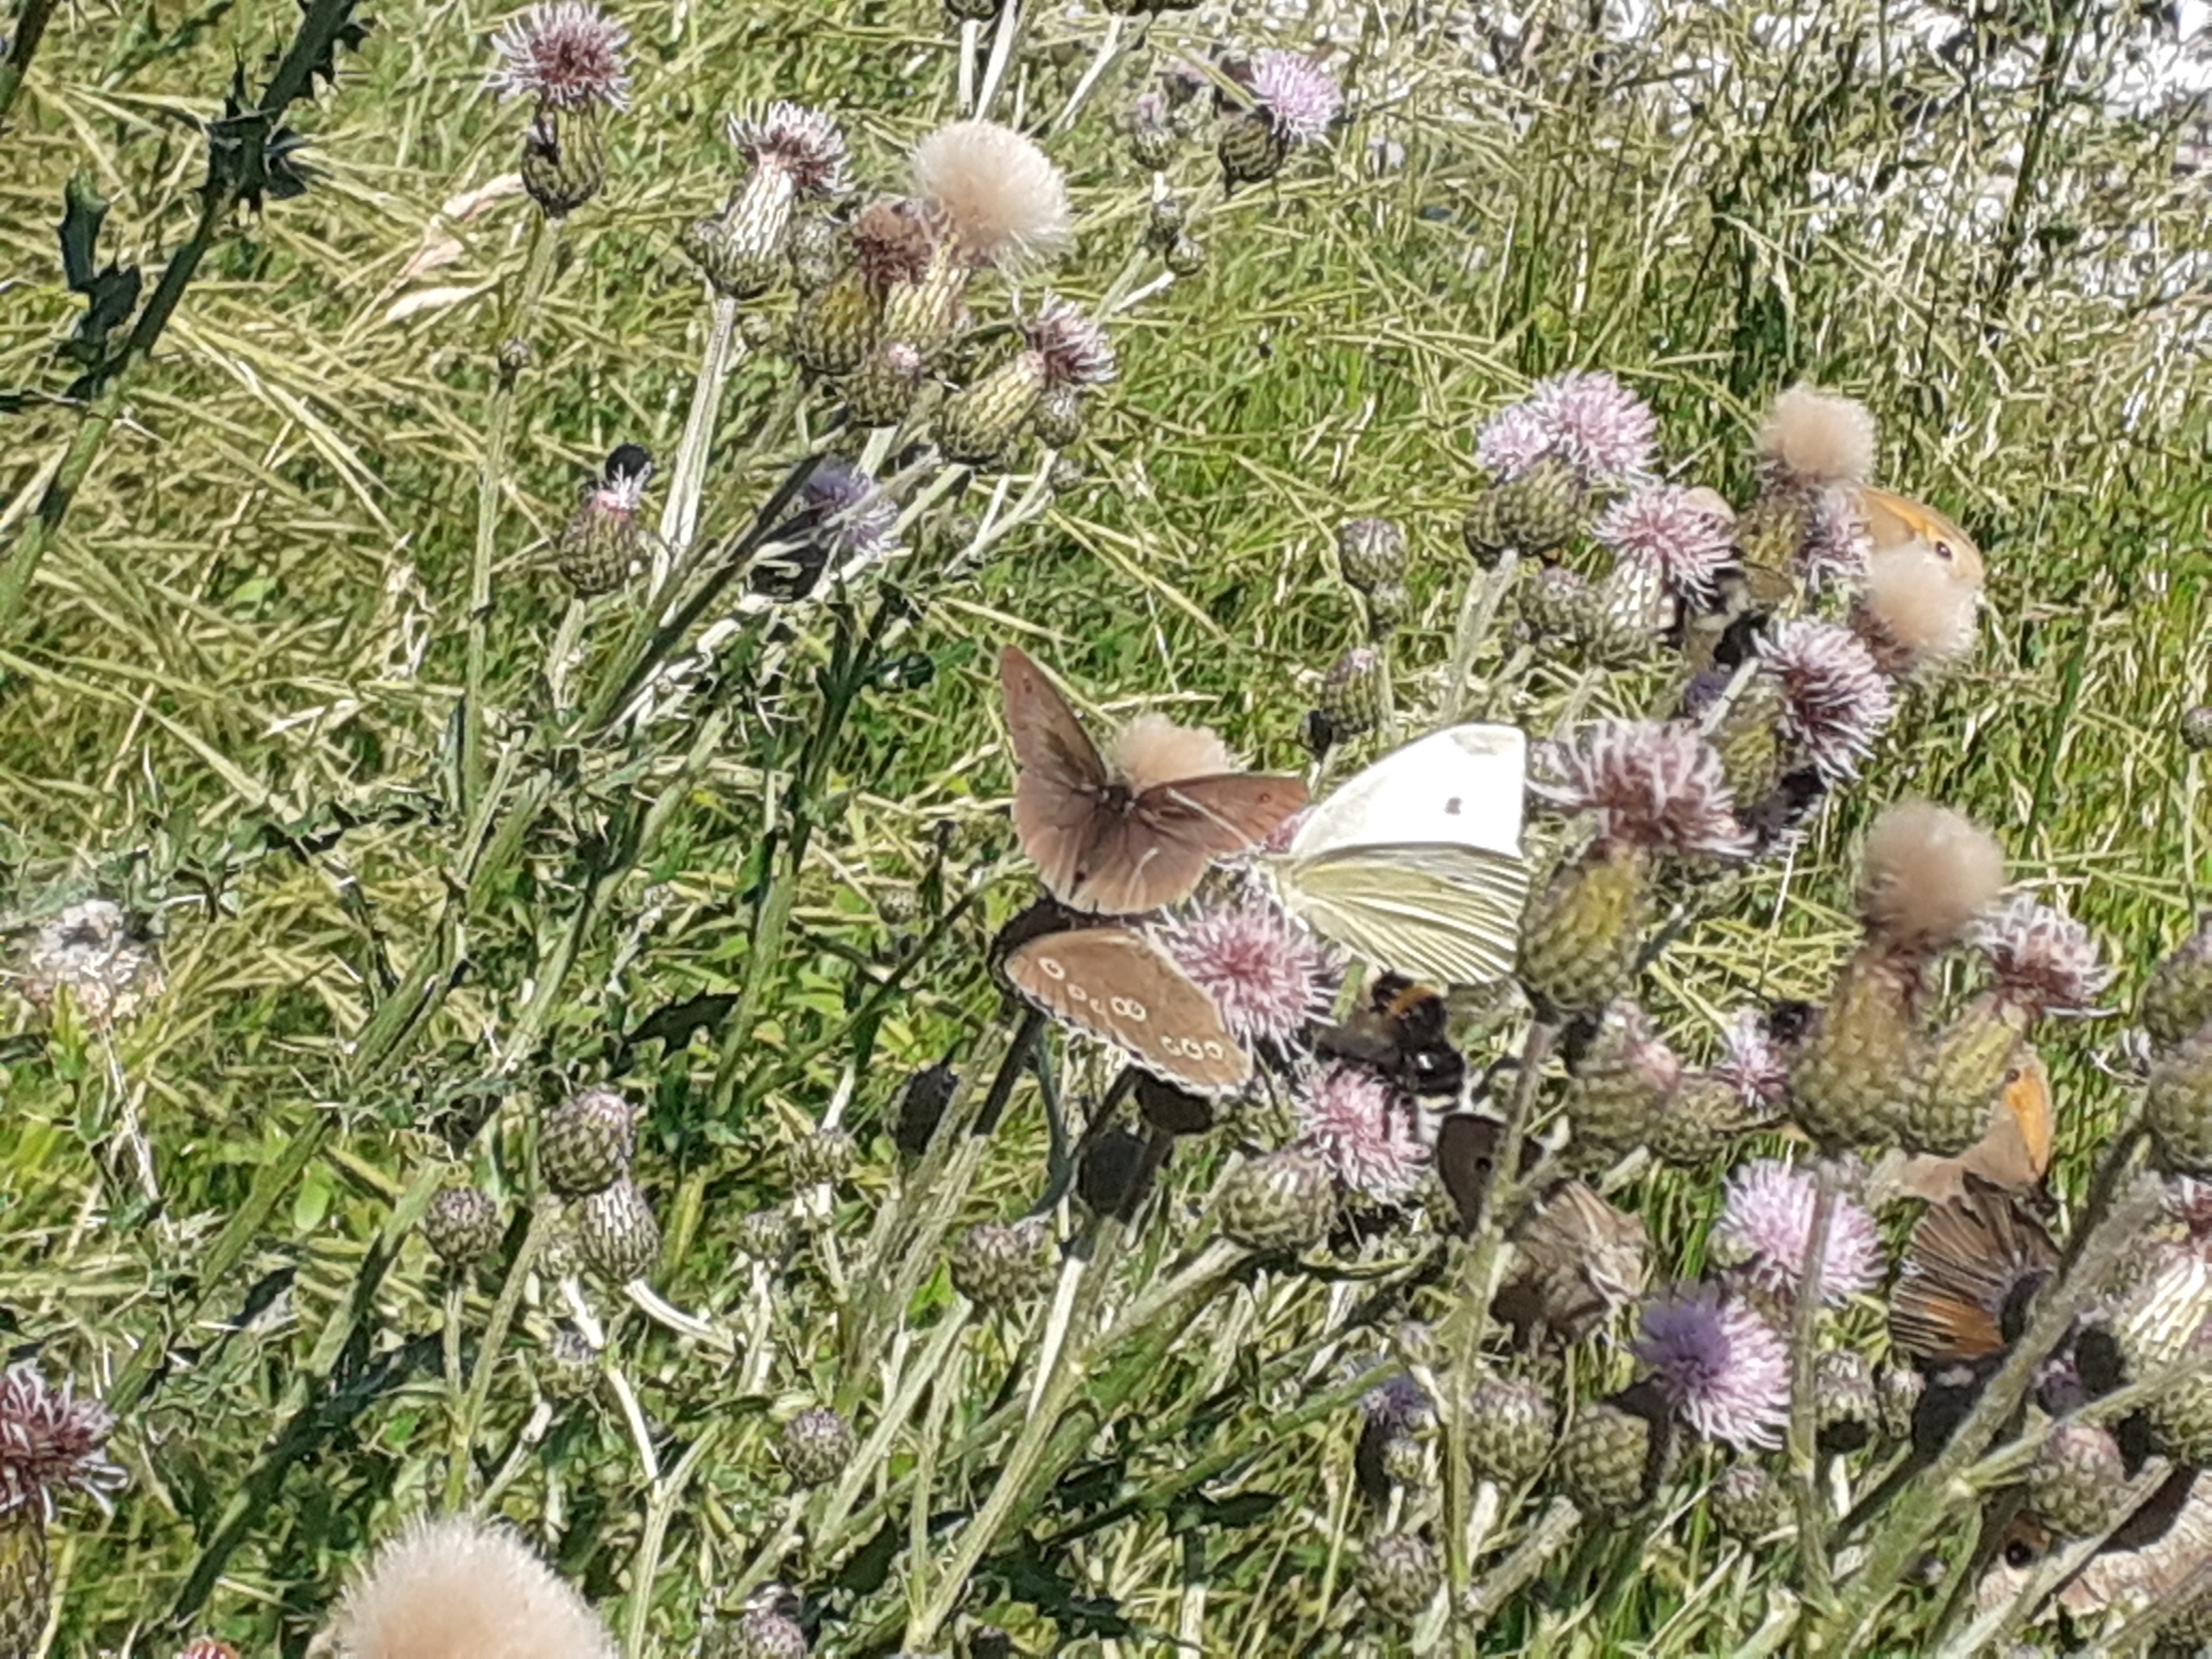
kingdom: Animalia
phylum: Arthropoda
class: Insecta
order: Lepidoptera
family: Nymphalidae
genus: Aphantopus
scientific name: Aphantopus hyperantus
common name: Engrandøje
